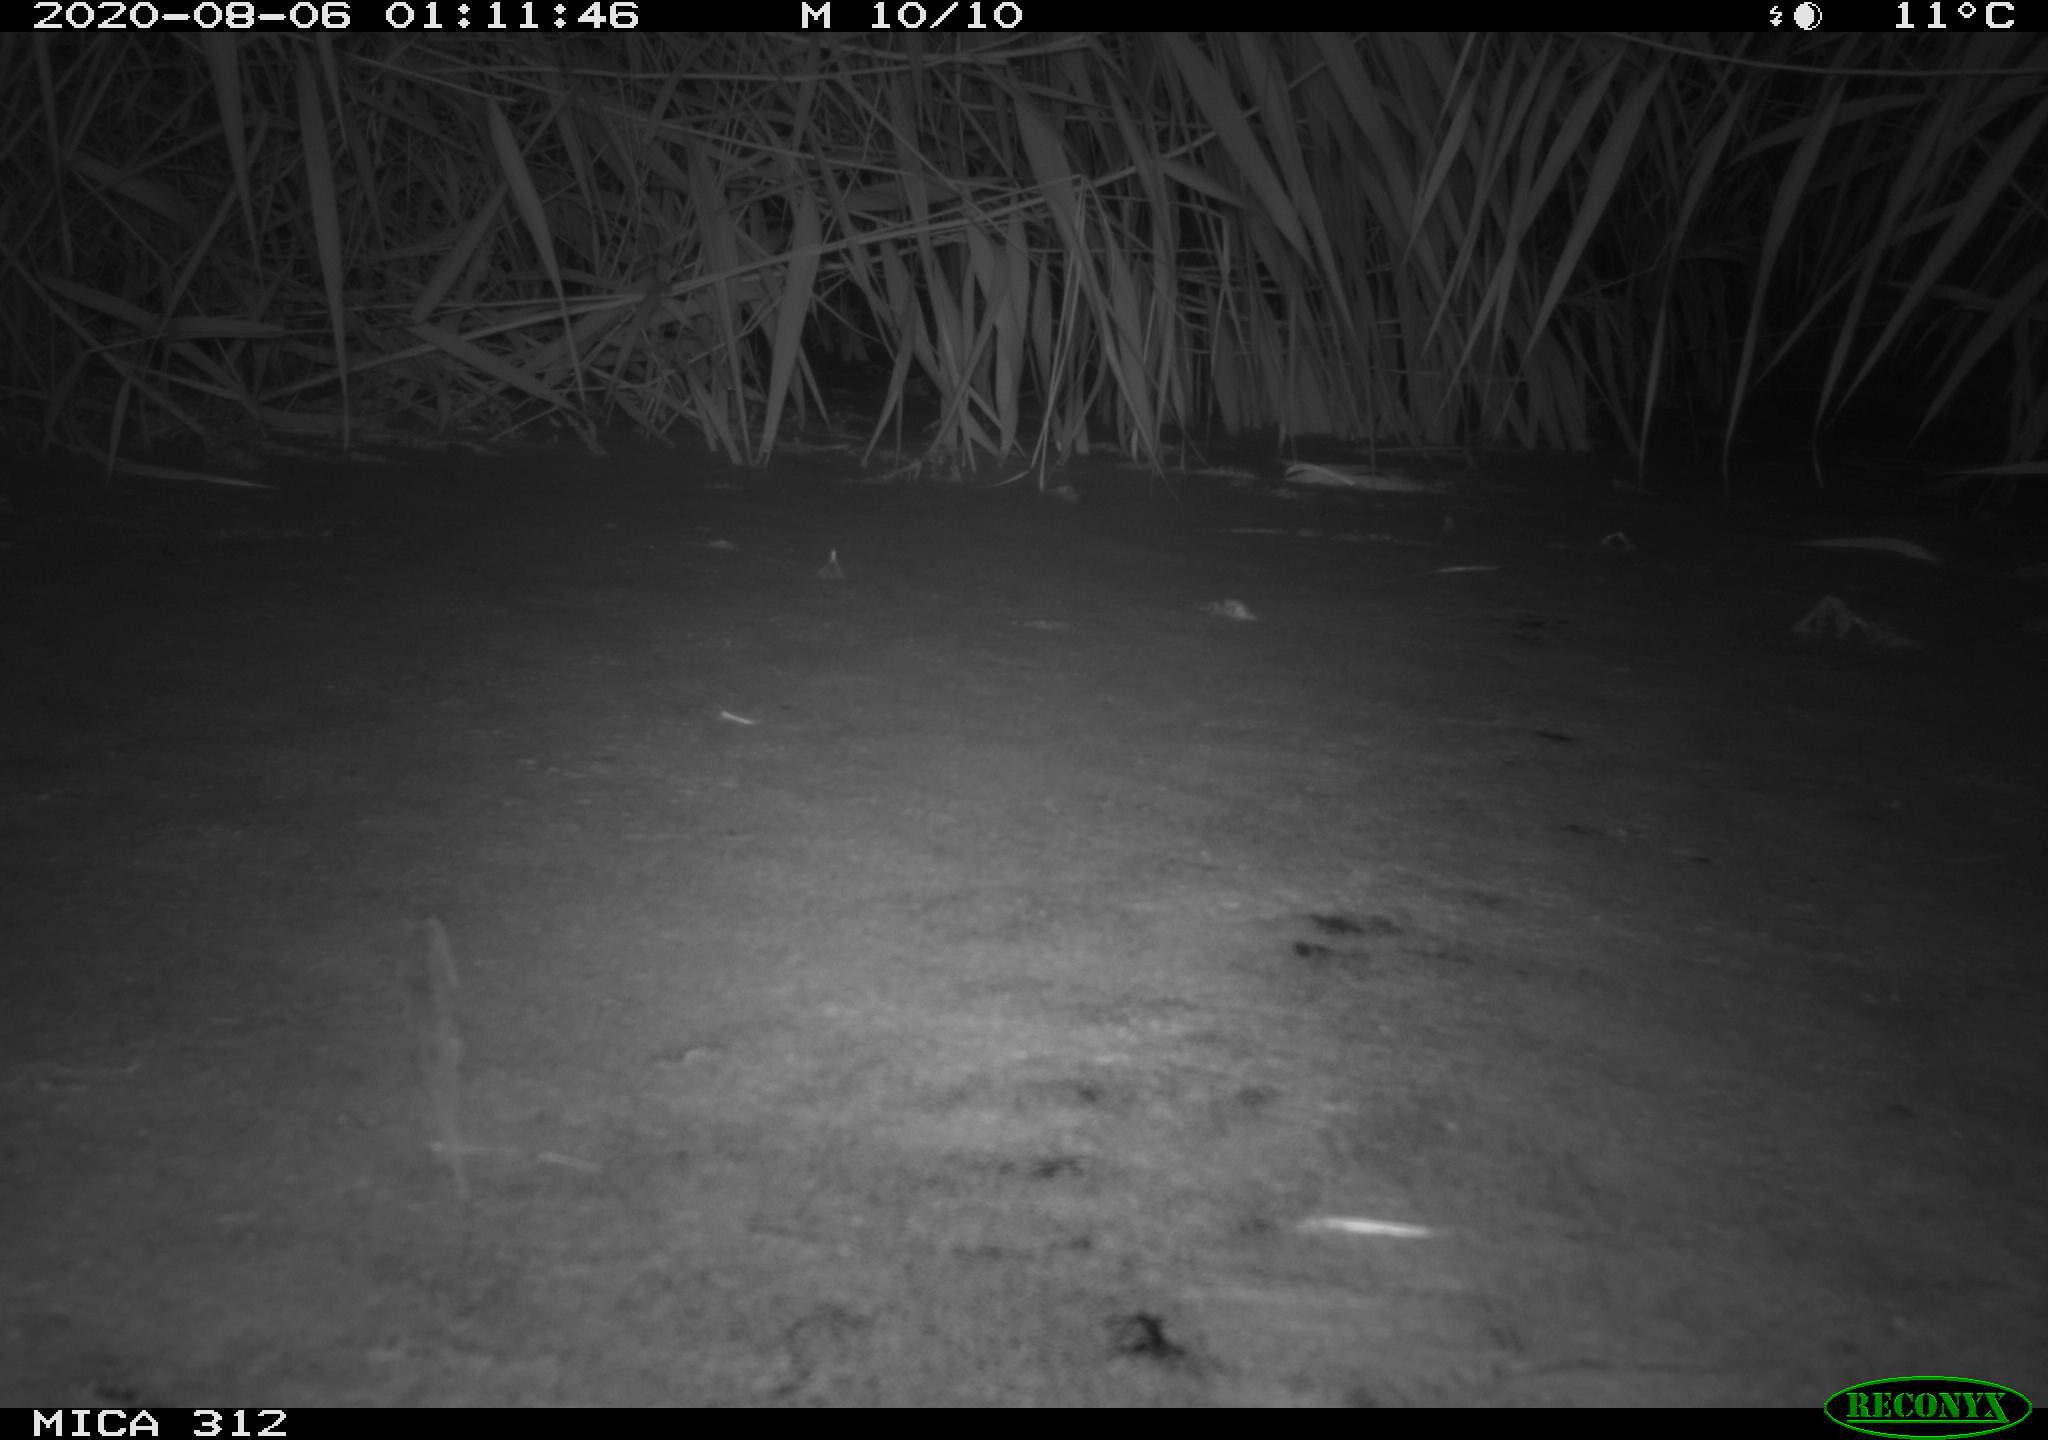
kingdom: Animalia
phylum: Chordata
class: Mammalia
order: Rodentia
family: Cricetidae
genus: Ondatra
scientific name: Ondatra zibethicus
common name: Muskrat
